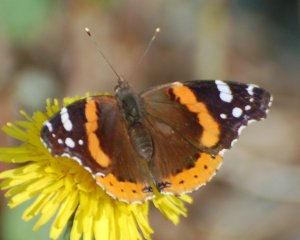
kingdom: Animalia
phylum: Arthropoda
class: Insecta
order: Lepidoptera
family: Nymphalidae
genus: Vanessa
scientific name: Vanessa atalanta
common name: Red Admiral
